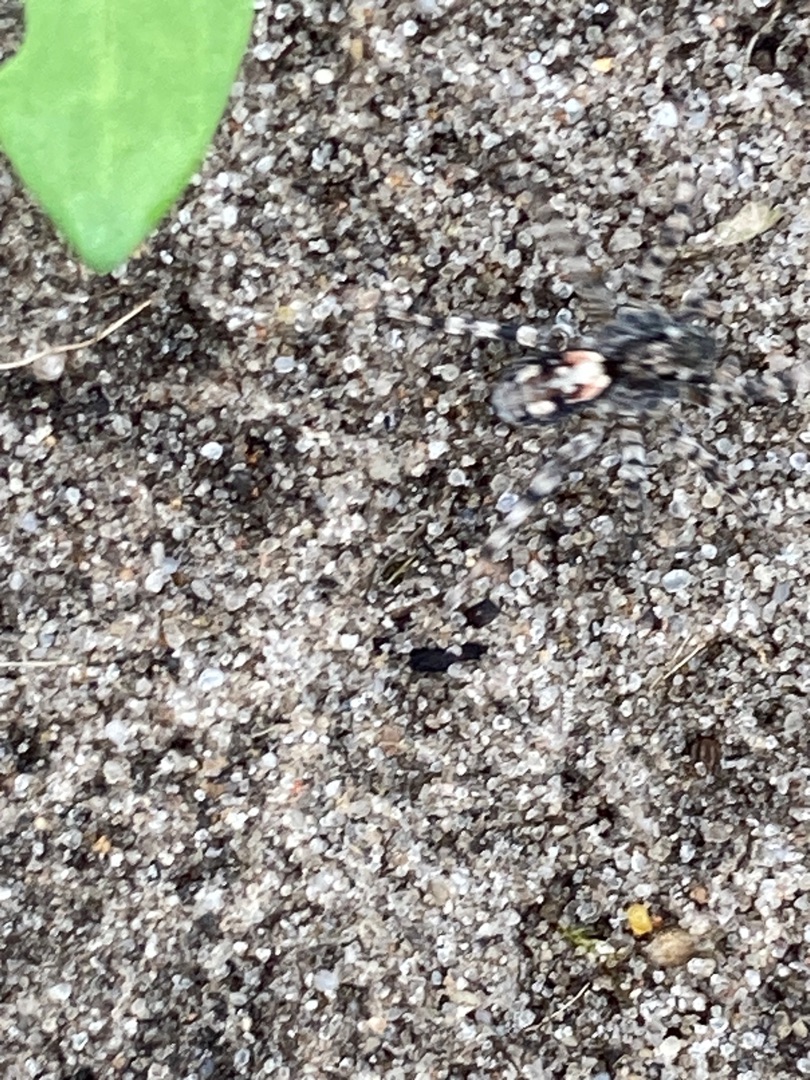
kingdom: Animalia
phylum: Arthropoda
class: Arachnida
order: Araneae
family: Lycosidae
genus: Arctosa
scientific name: Arctosa perita
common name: Klitgraveedderkop
